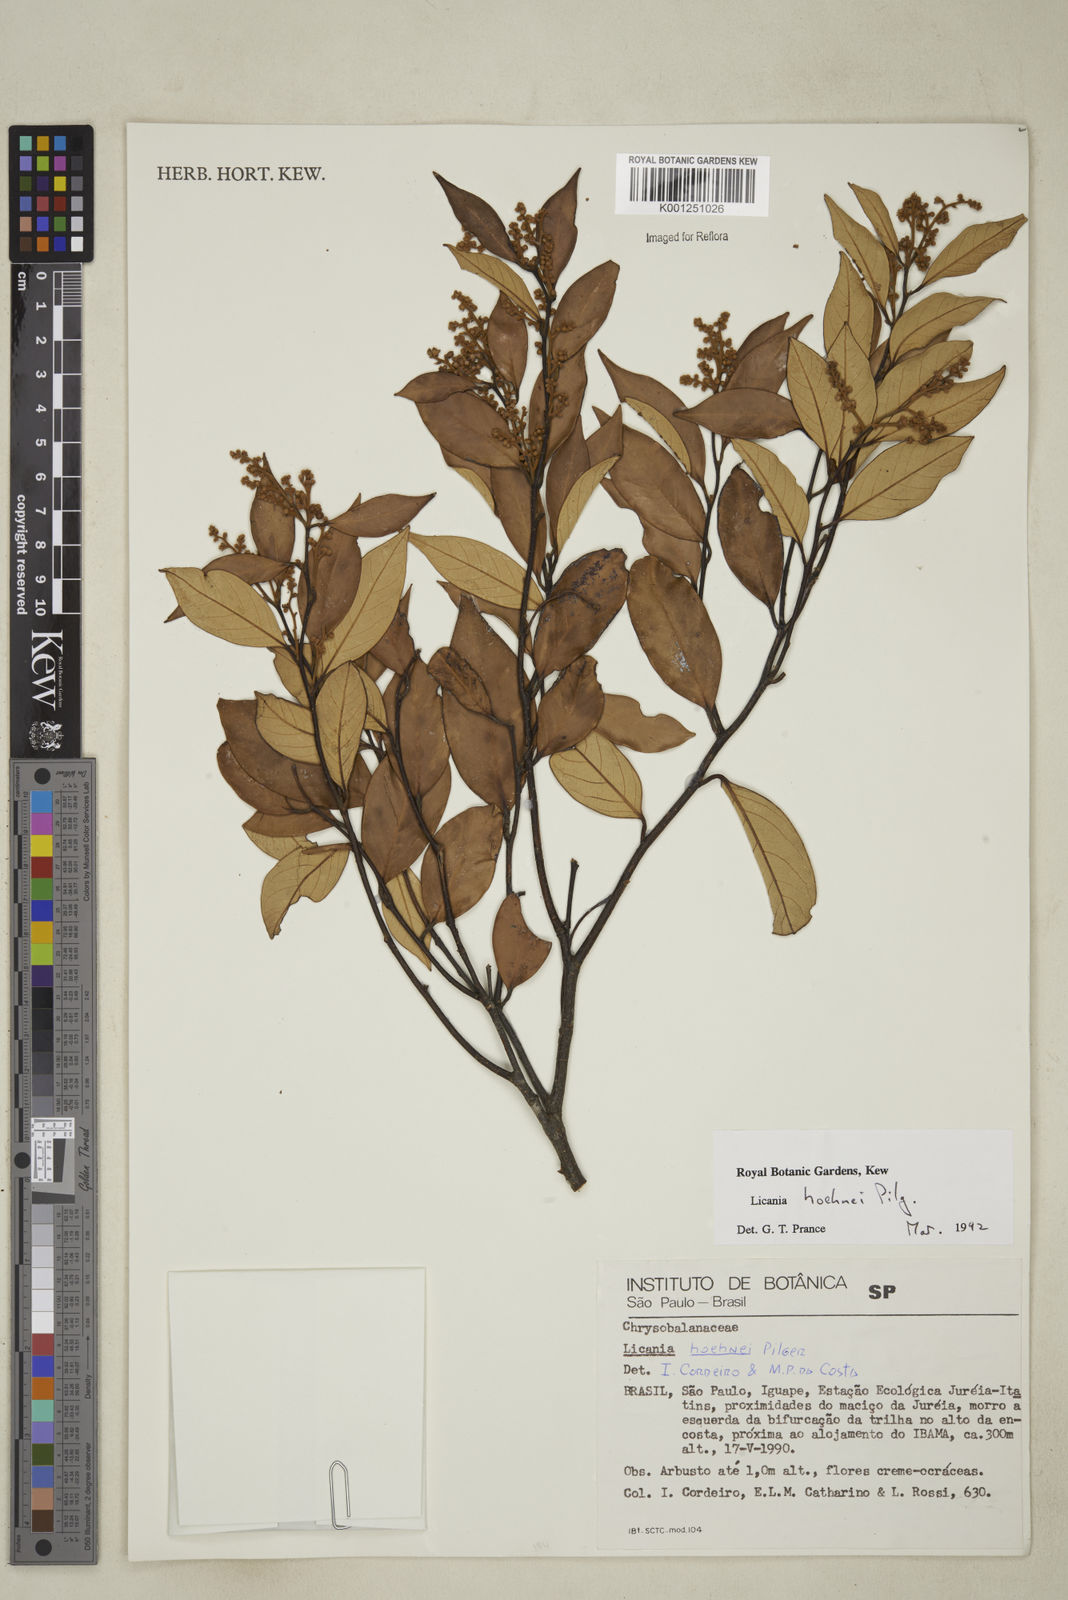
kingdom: Plantae
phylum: Tracheophyta
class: Magnoliopsida
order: Malpighiales
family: Chrysobalanaceae
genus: Licania
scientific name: Licania indurata
